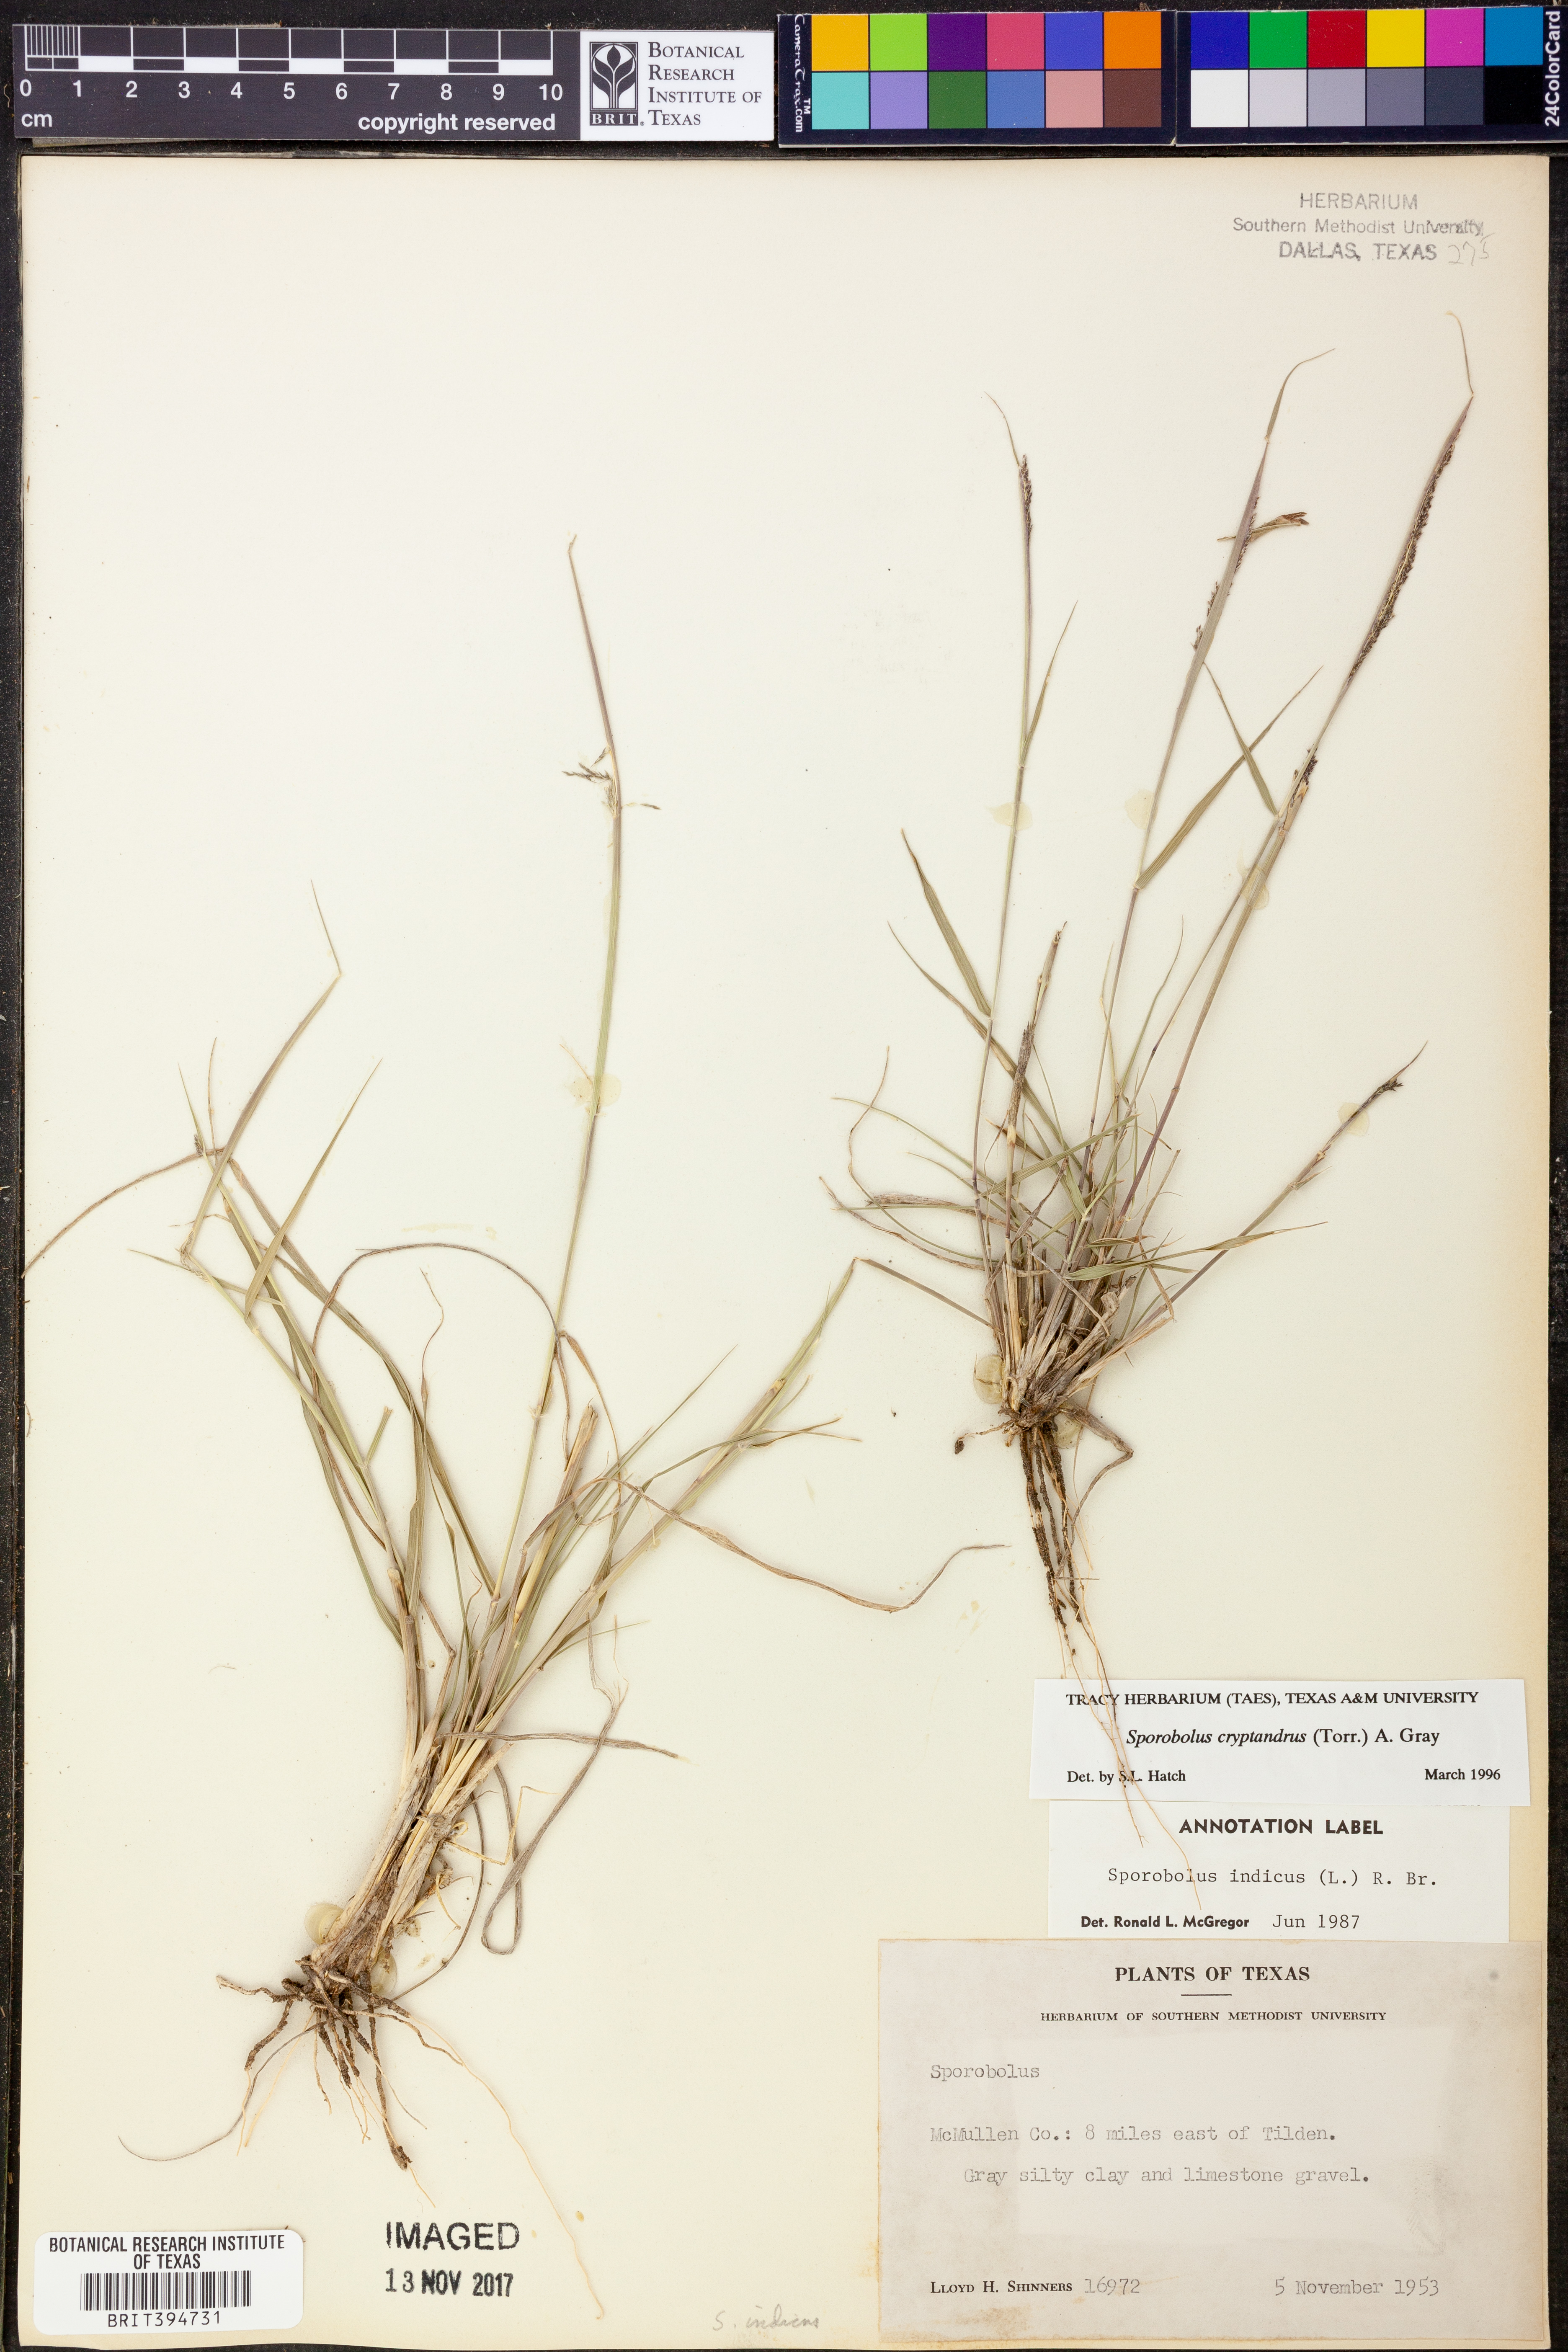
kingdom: Plantae
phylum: Tracheophyta
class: Liliopsida
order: Poales
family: Poaceae
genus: Sporobolus
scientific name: Sporobolus cryptandrus
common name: Sand dropseed
